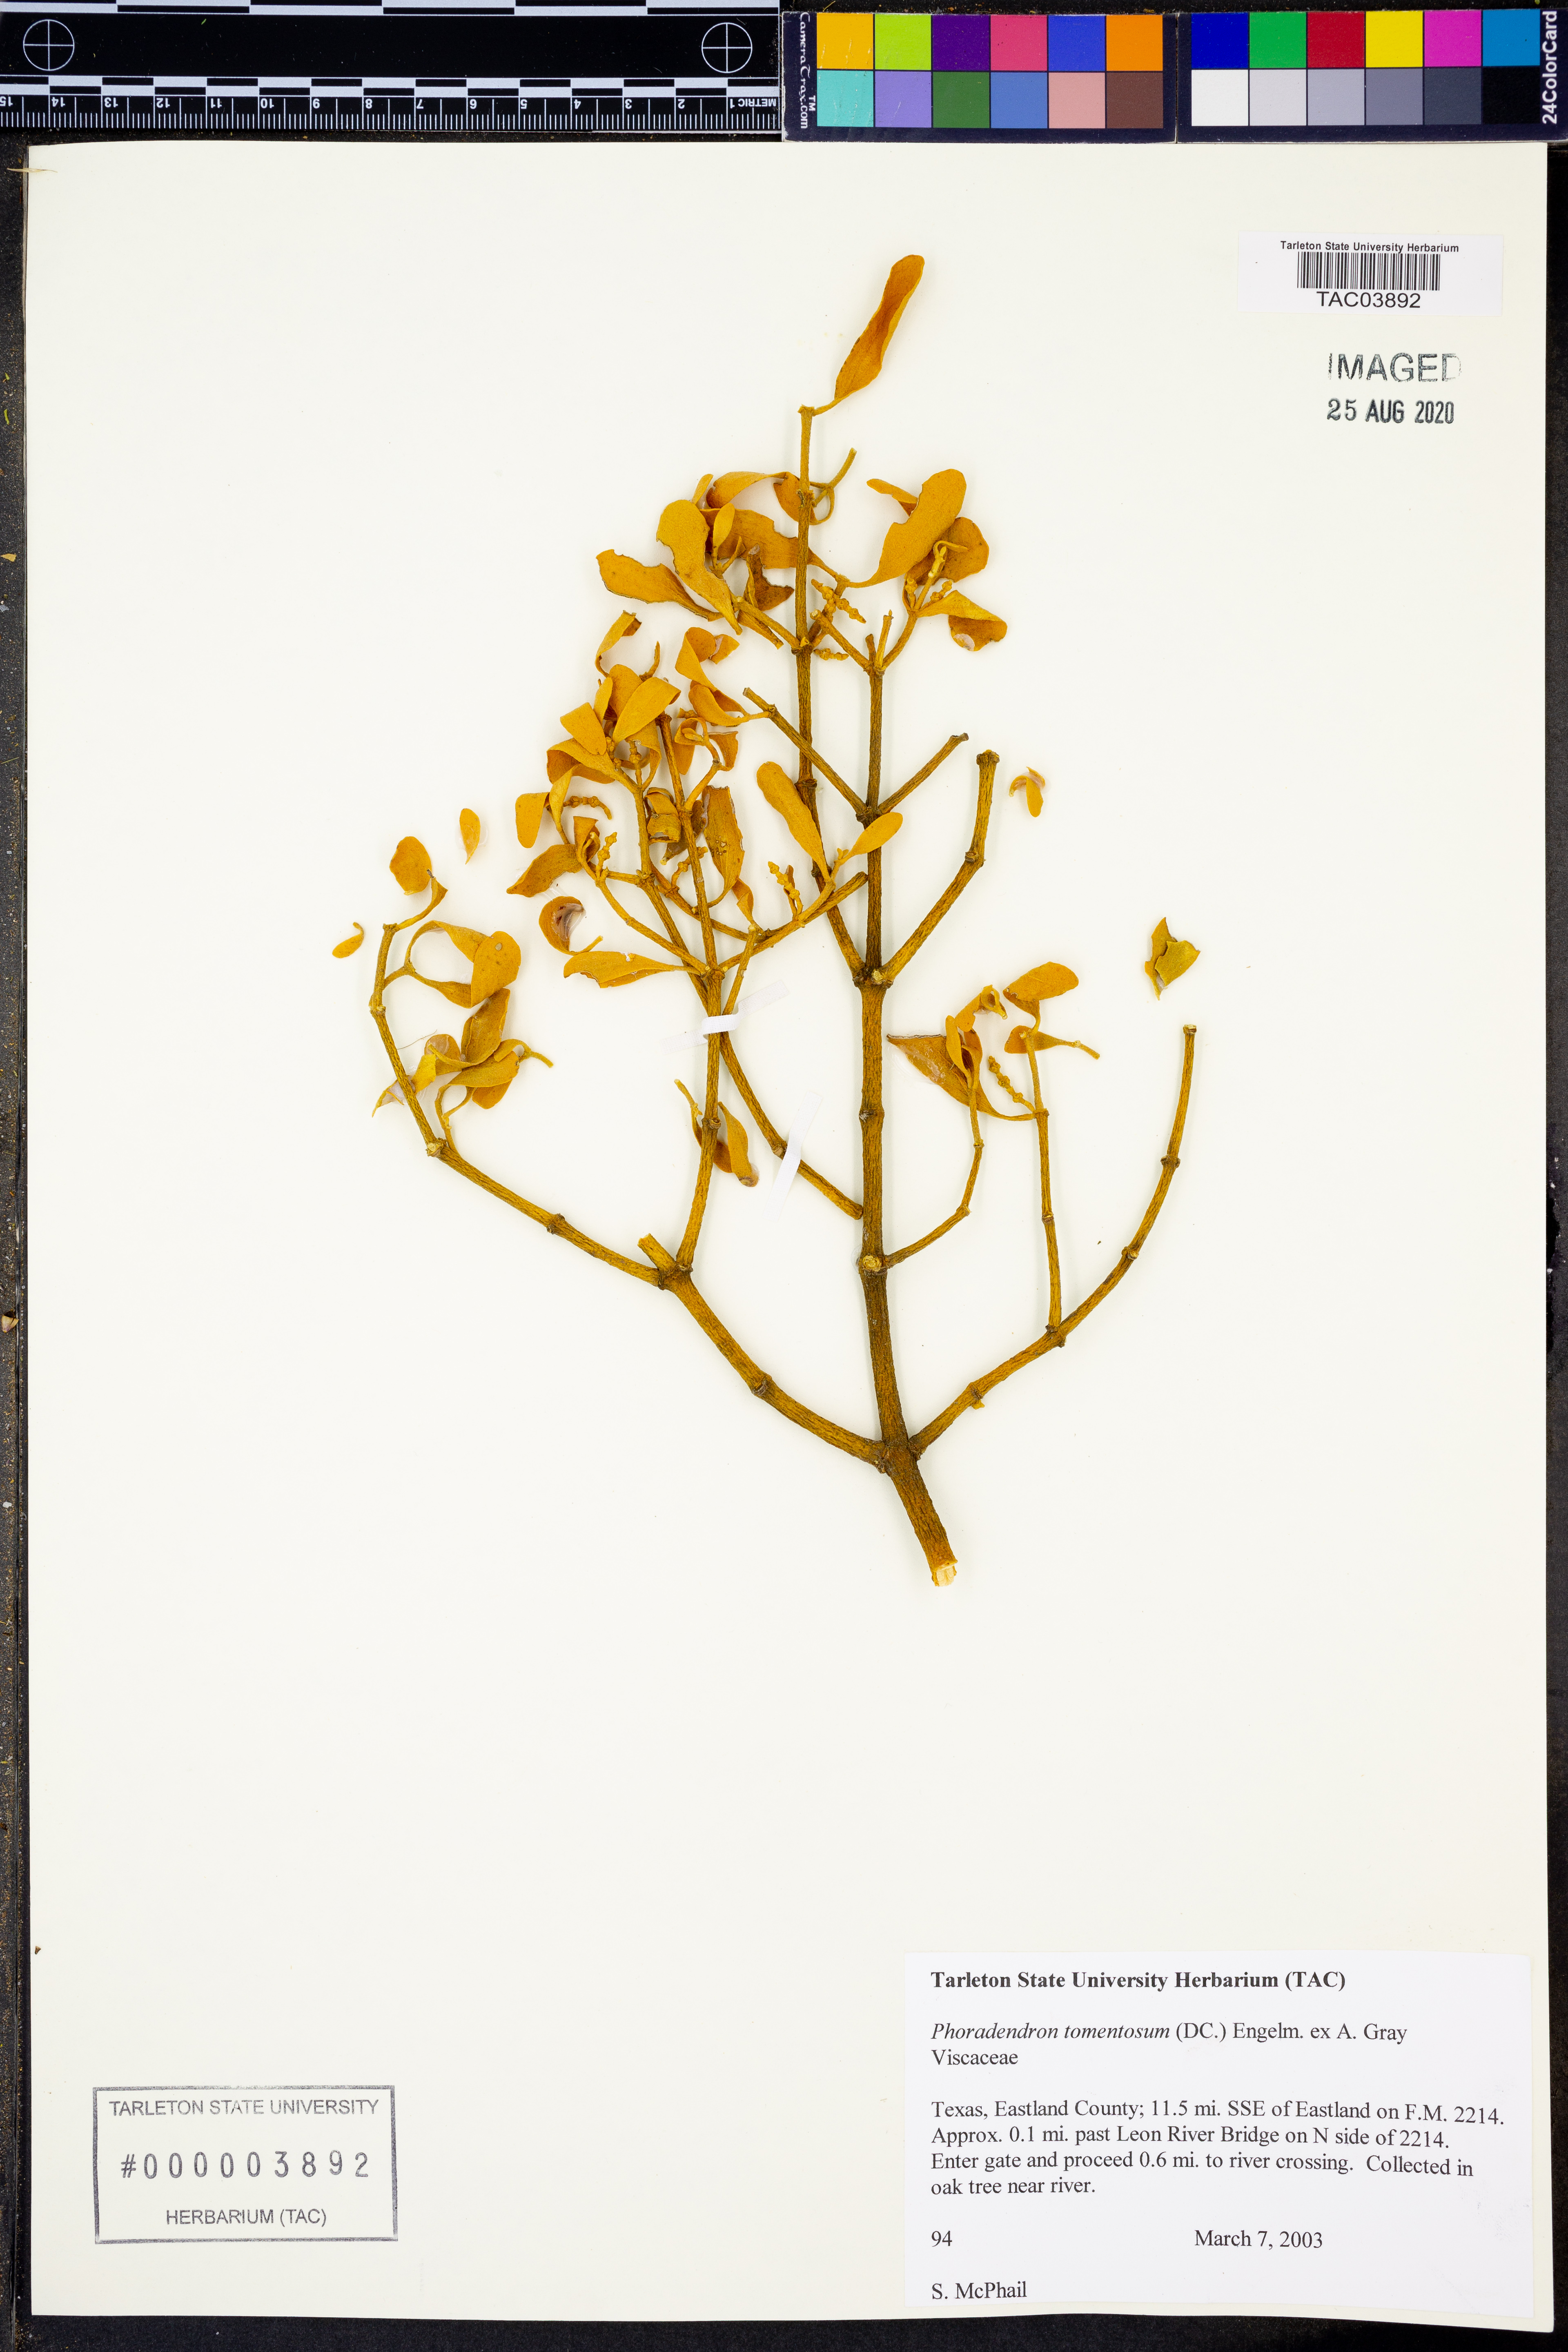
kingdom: Plantae
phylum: Tracheophyta
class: Magnoliopsida
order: Santalales
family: Viscaceae
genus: Phoradendron
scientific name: Phoradendron leucarpum
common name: Pacific mistletoe
